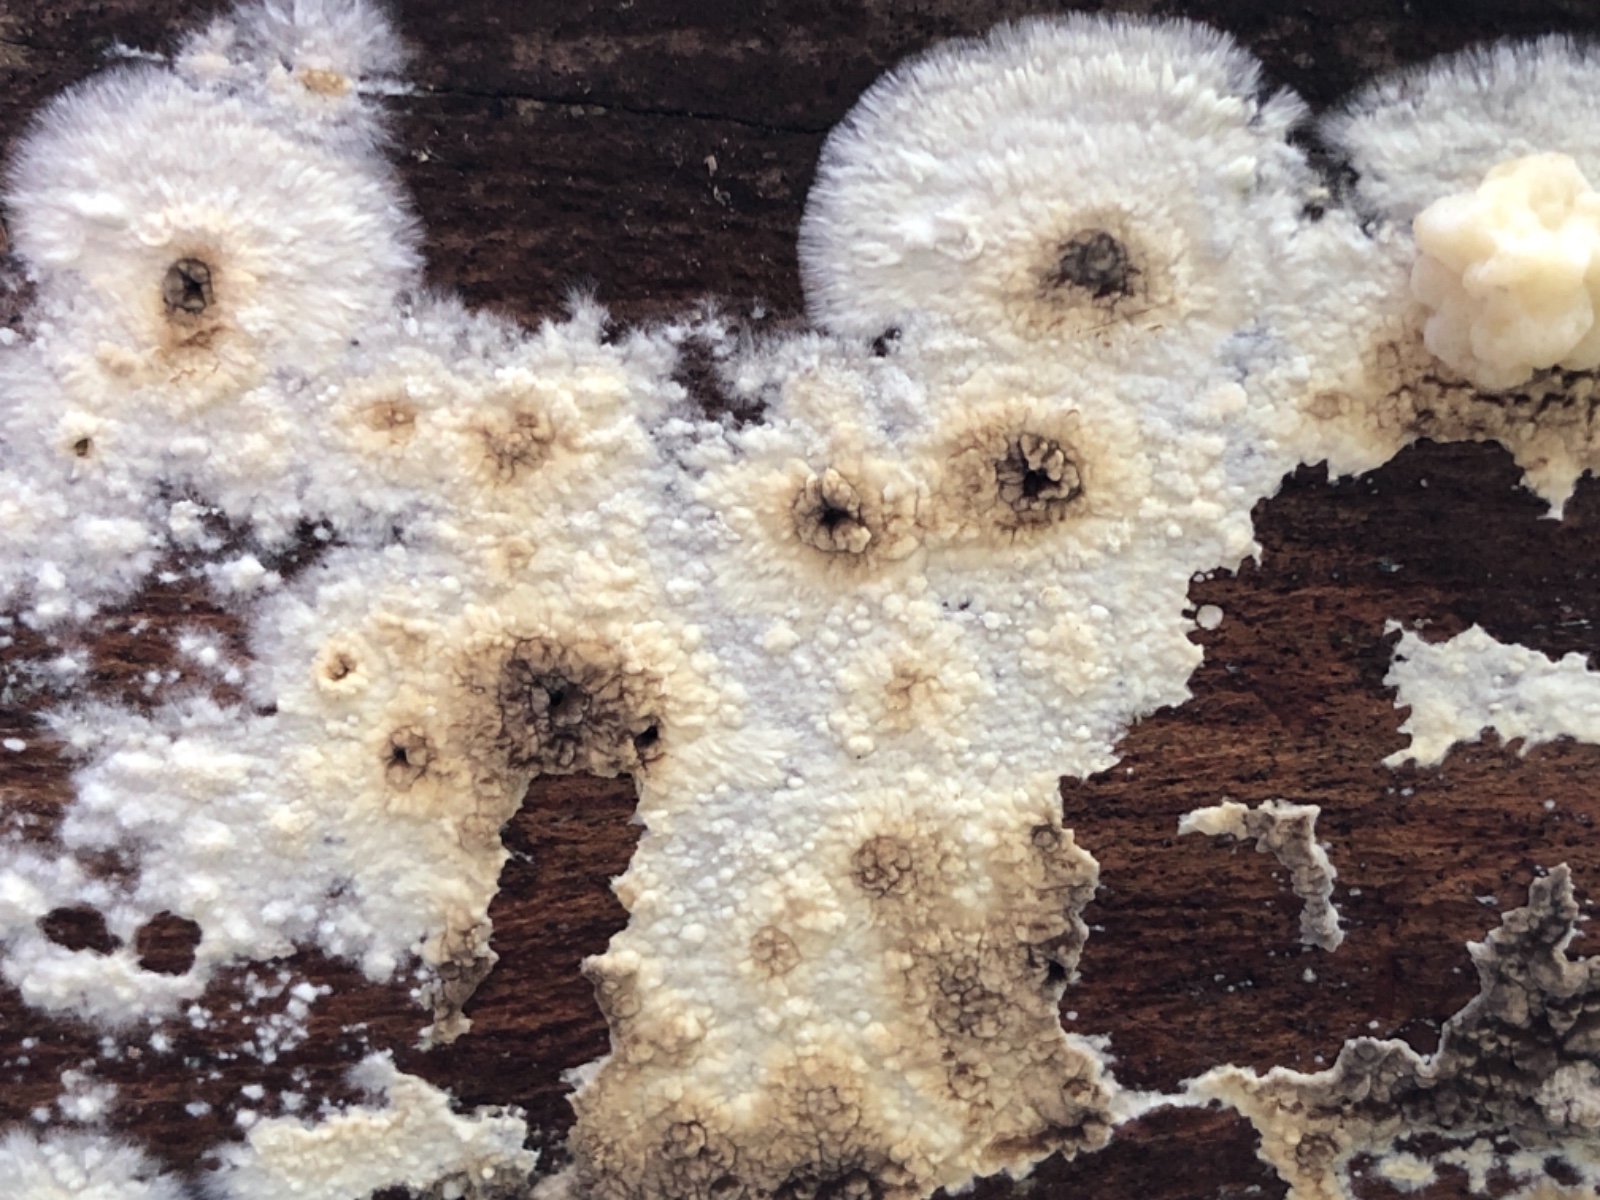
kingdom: Fungi
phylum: Ascomycota
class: Sordariomycetes
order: Xylariales
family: Hypoxylaceae
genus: Nodulisporium
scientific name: Nodulisporium cecidiogenes
